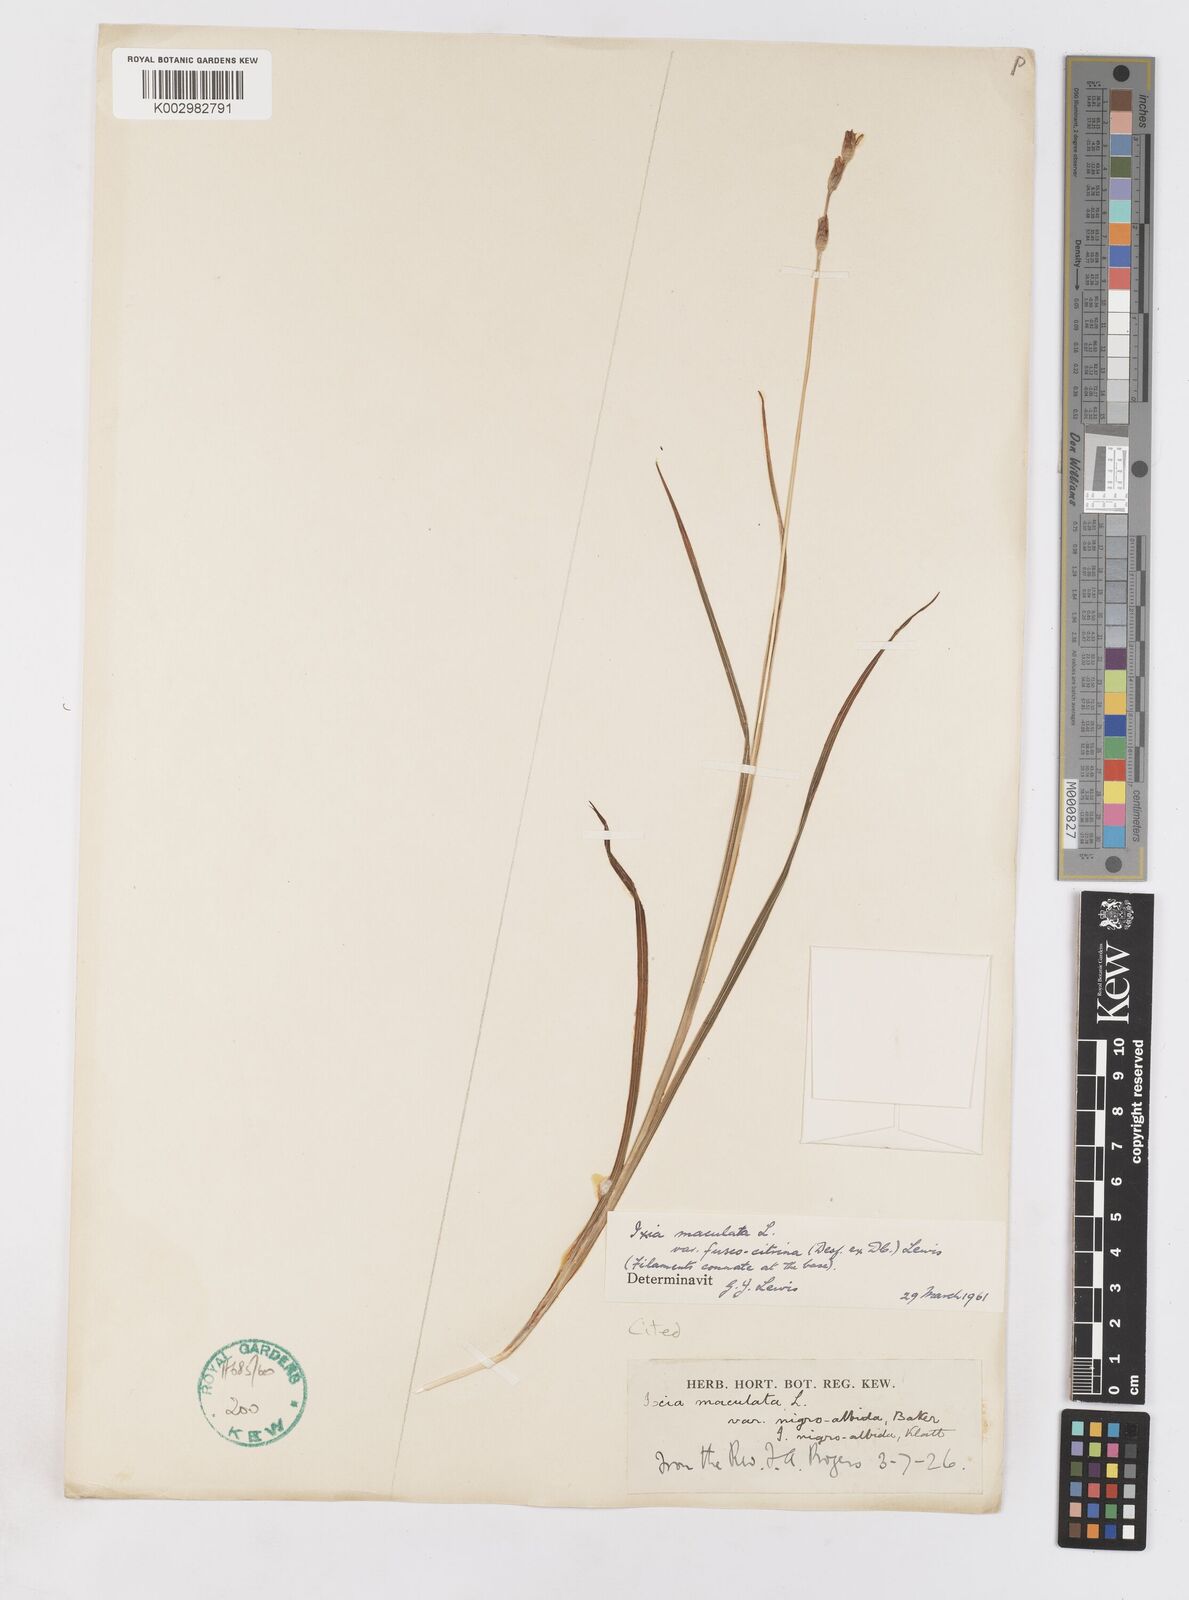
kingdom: Plantae
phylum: Tracheophyta
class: Liliopsida
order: Asparagales
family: Iridaceae
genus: Ixia
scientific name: Ixia fuscocitrina
